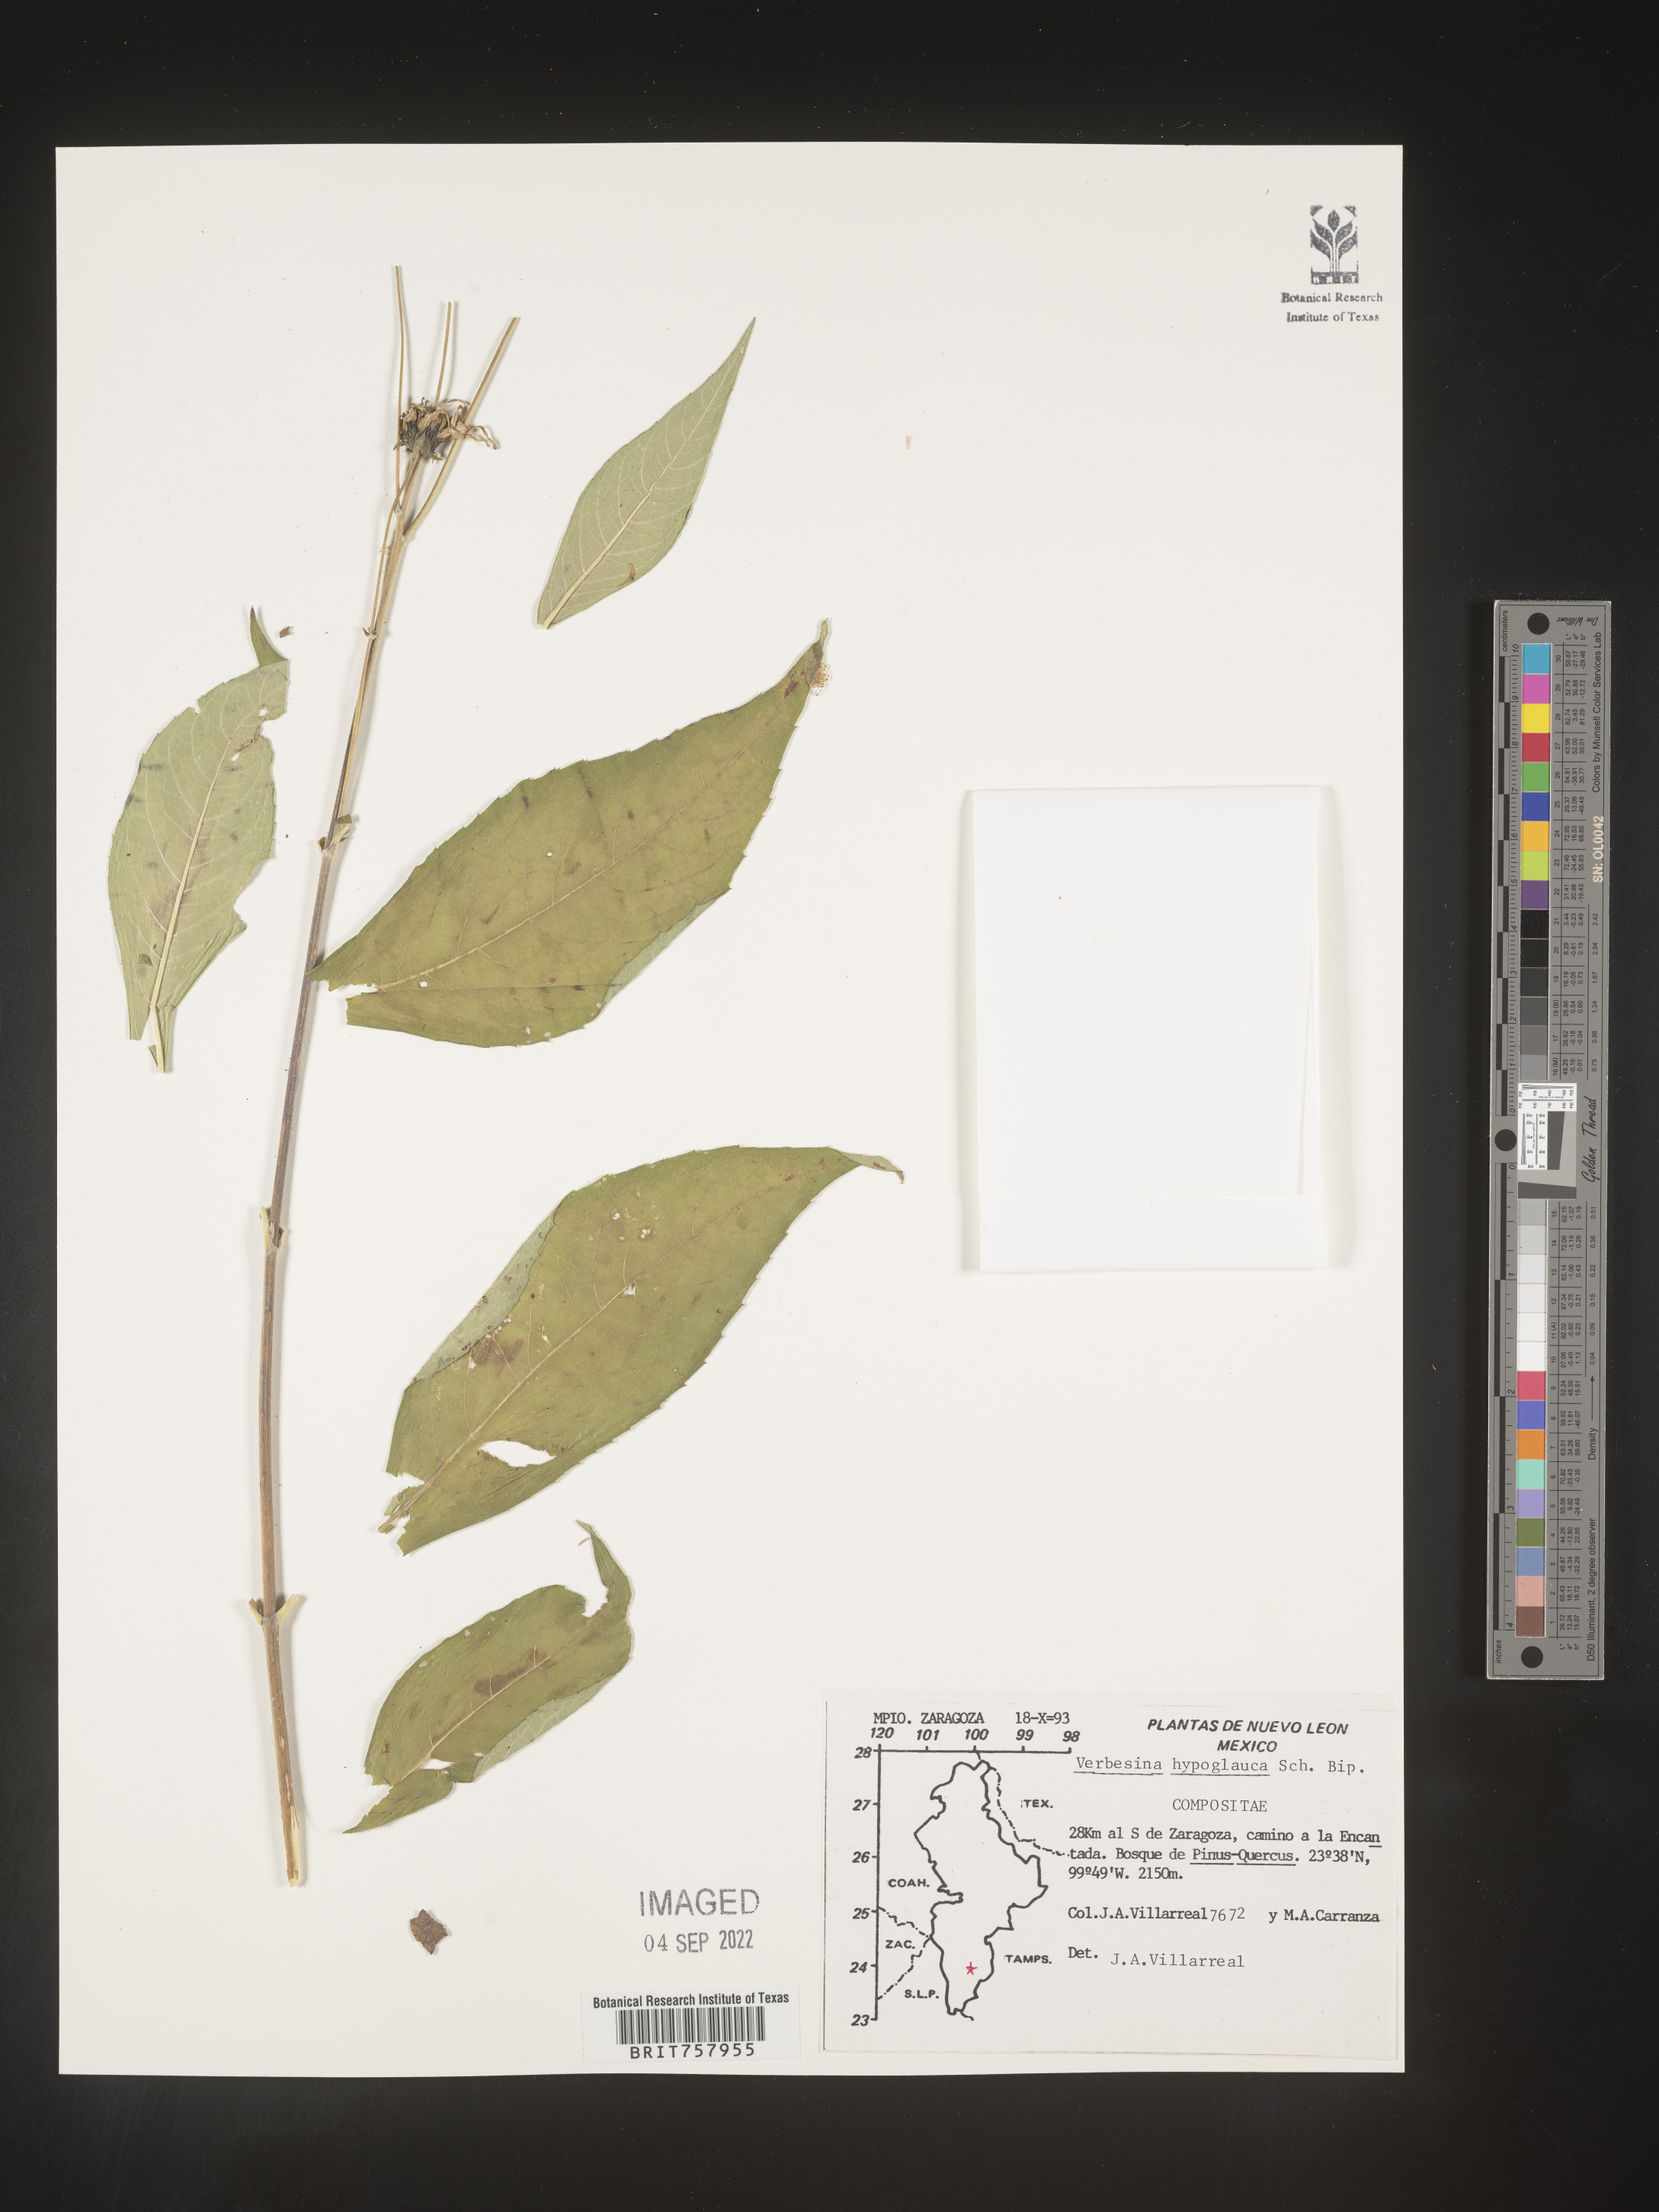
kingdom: Plantae
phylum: Tracheophyta
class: Magnoliopsida
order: Asterales
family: Asteraceae
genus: Verbesina
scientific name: Verbesina
